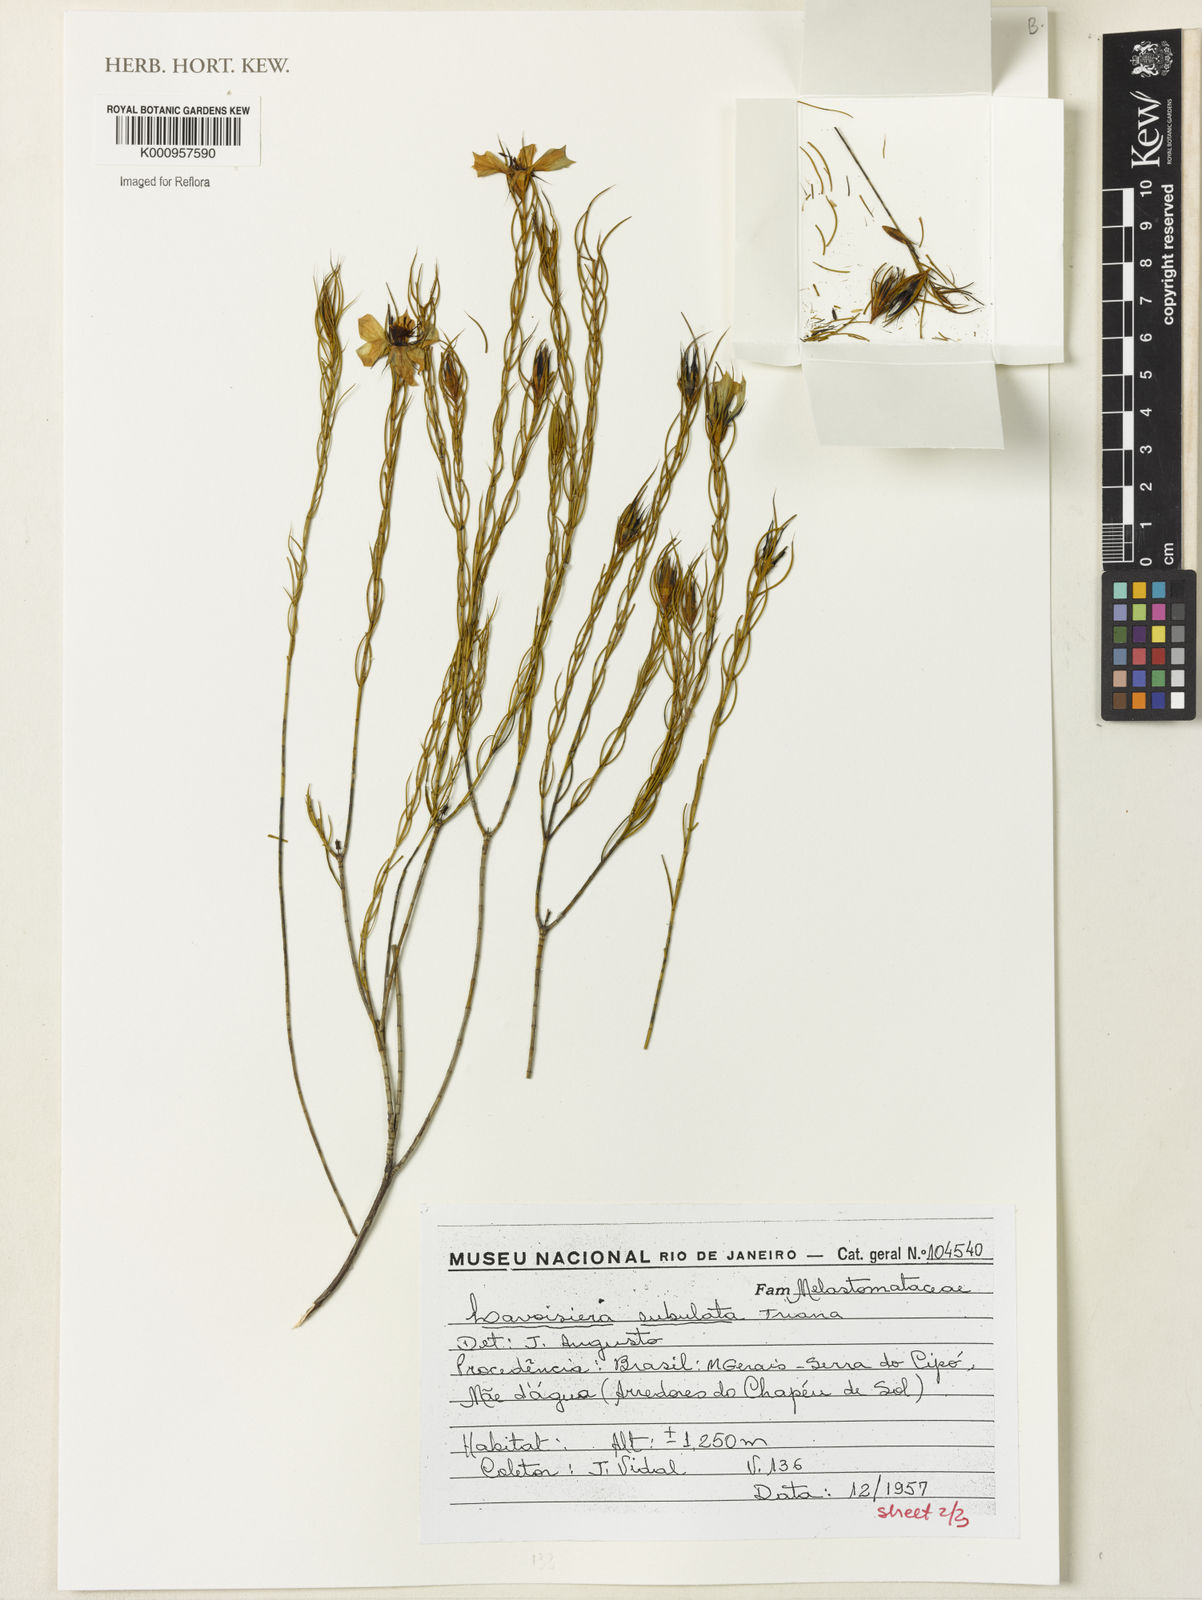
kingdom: Plantae
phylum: Tracheophyta
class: Magnoliopsida
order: Myrtales
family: Melastomataceae
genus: Microlicia
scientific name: Microlicia subulata
